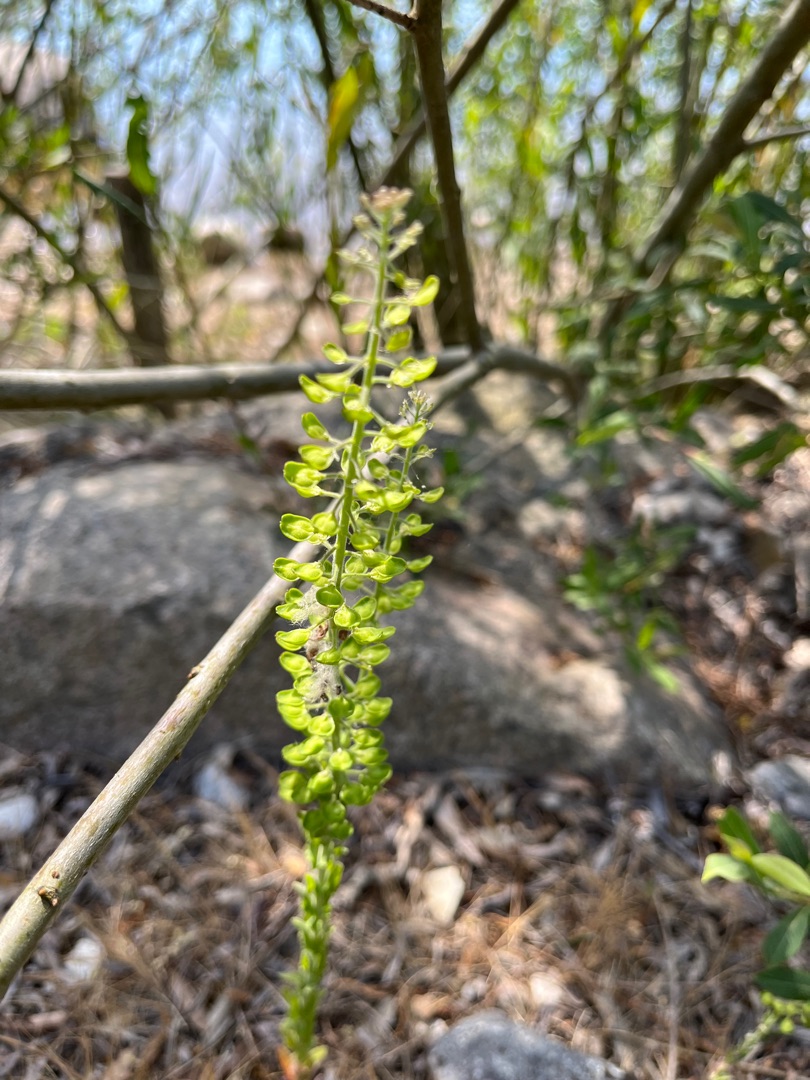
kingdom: Plantae
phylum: Tracheophyta
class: Magnoliopsida
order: Brassicales
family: Brassicaceae
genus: Lepidium
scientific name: Lepidium campestre
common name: Salomons lysestage
